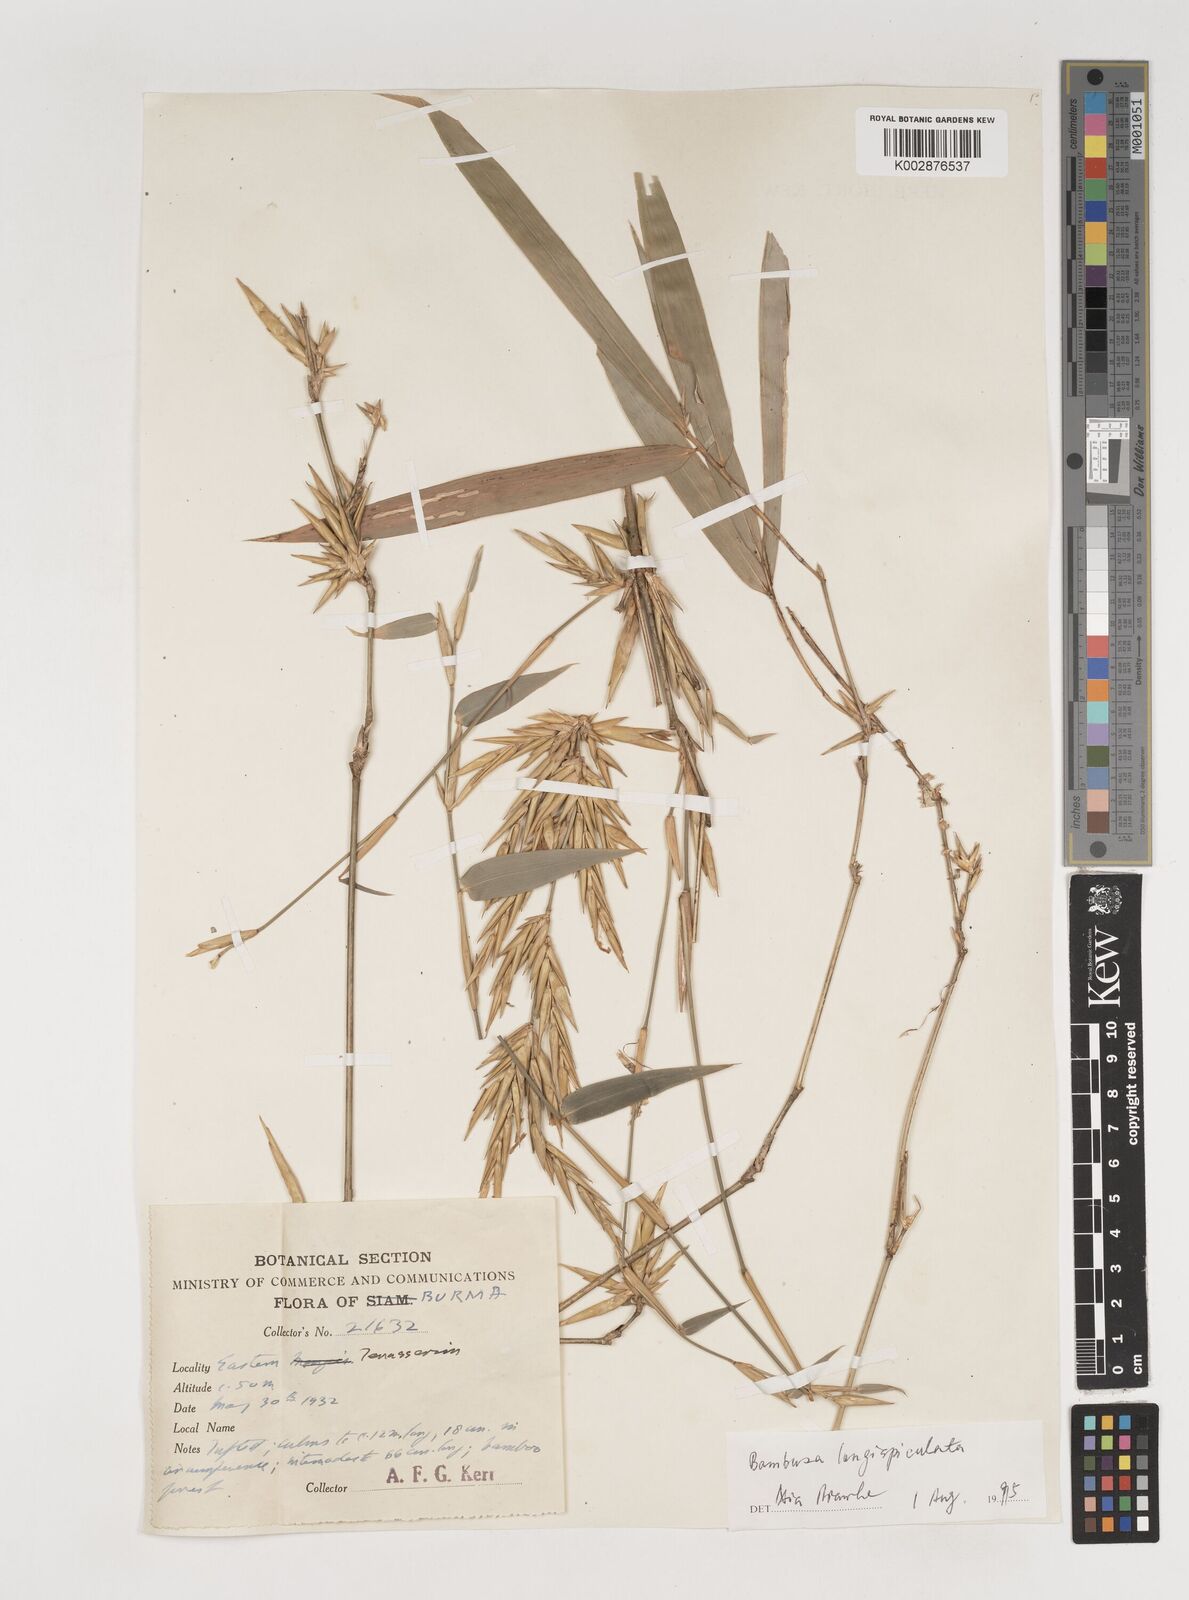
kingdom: Plantae
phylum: Tracheophyta
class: Liliopsida
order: Poales
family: Poaceae
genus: Bambusa
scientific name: Bambusa longispiculata
